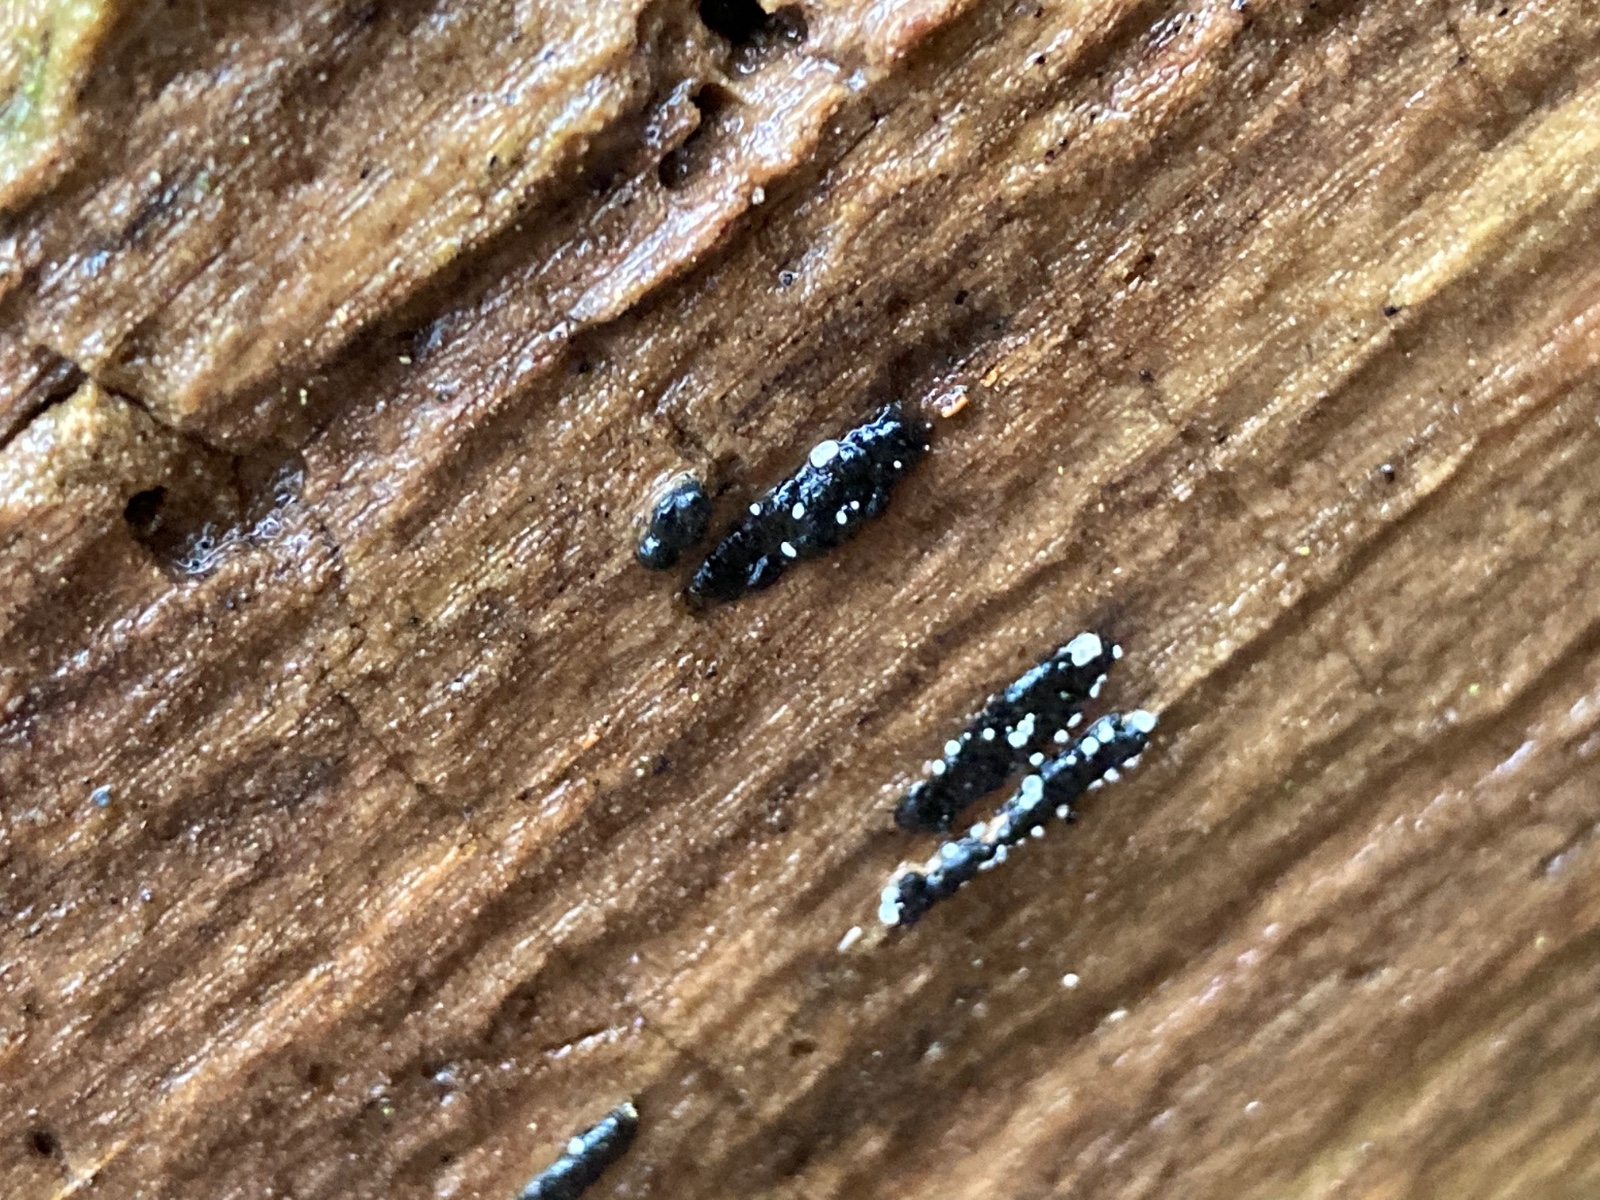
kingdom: Fungi
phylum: Ascomycota
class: Leotiomycetes
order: Helotiales
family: Hyaloscyphaceae
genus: Polydesmia
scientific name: Polydesmia pruinosa
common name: dunskive
